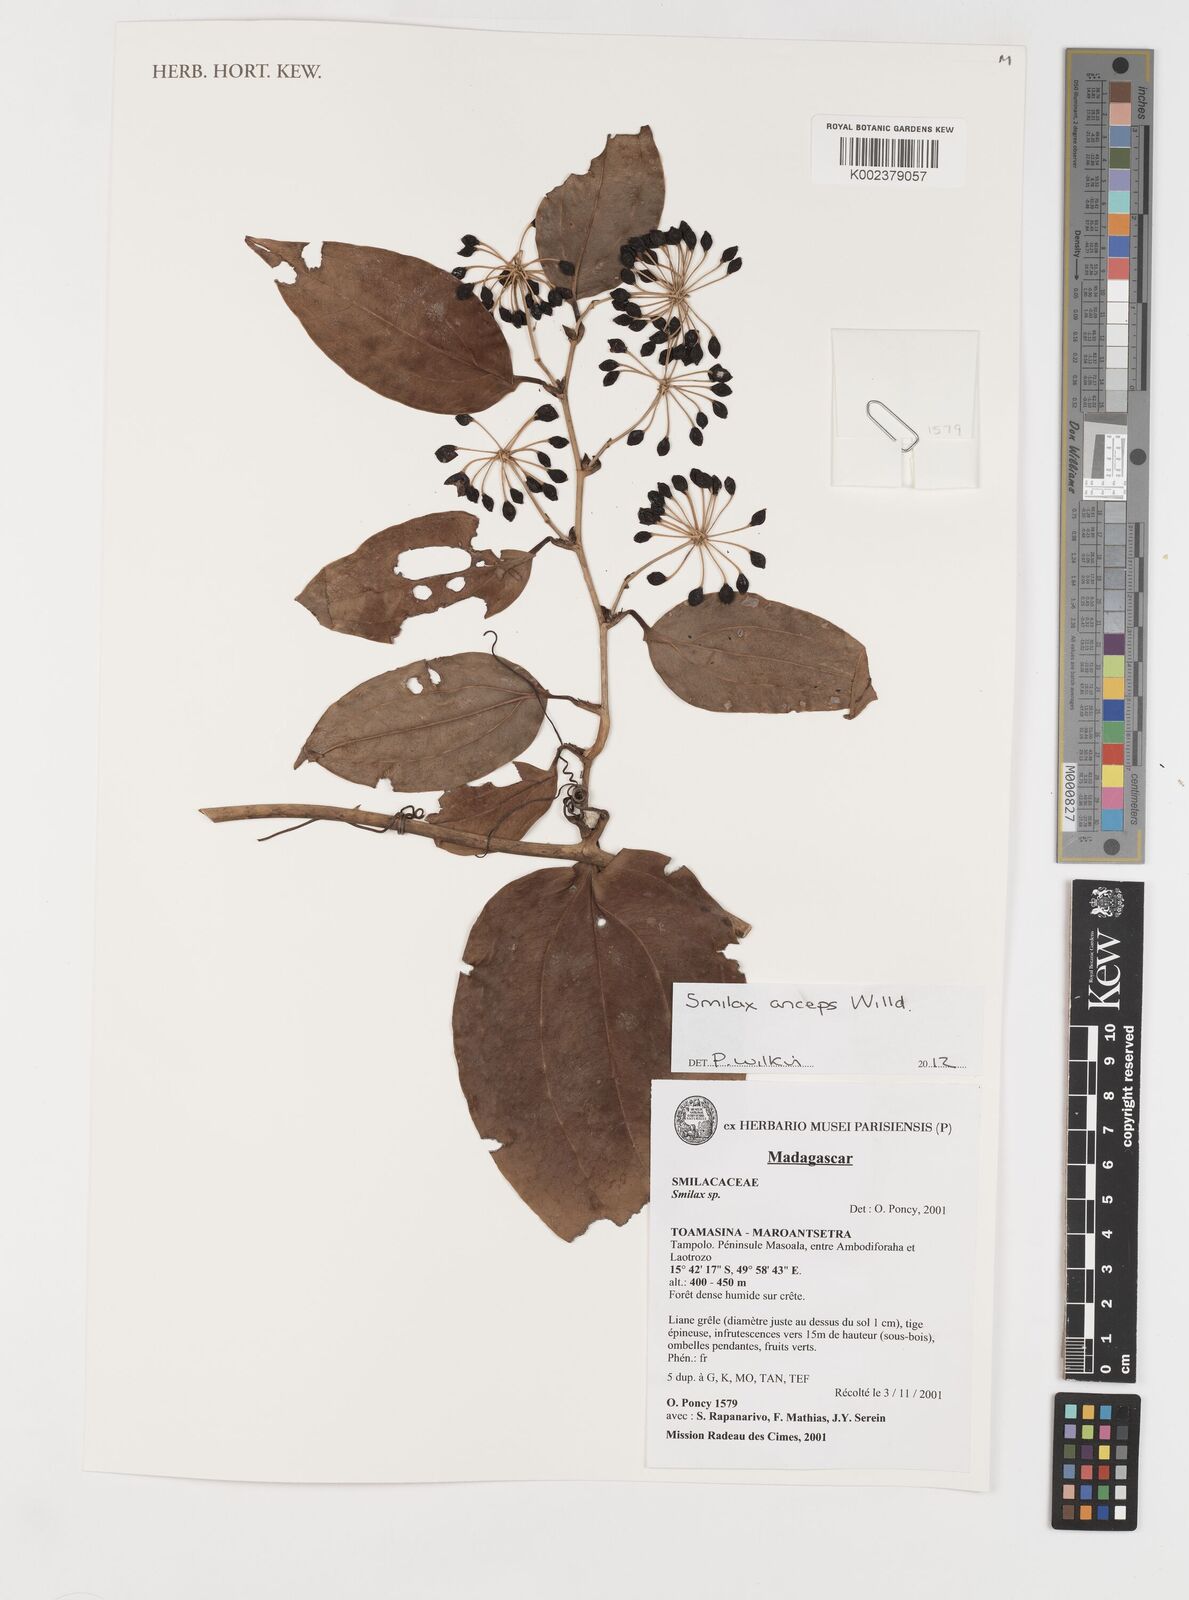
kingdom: Plantae
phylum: Tracheophyta
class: Liliopsida
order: Liliales
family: Smilacaceae
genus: Smilax
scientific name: Smilax anceps
